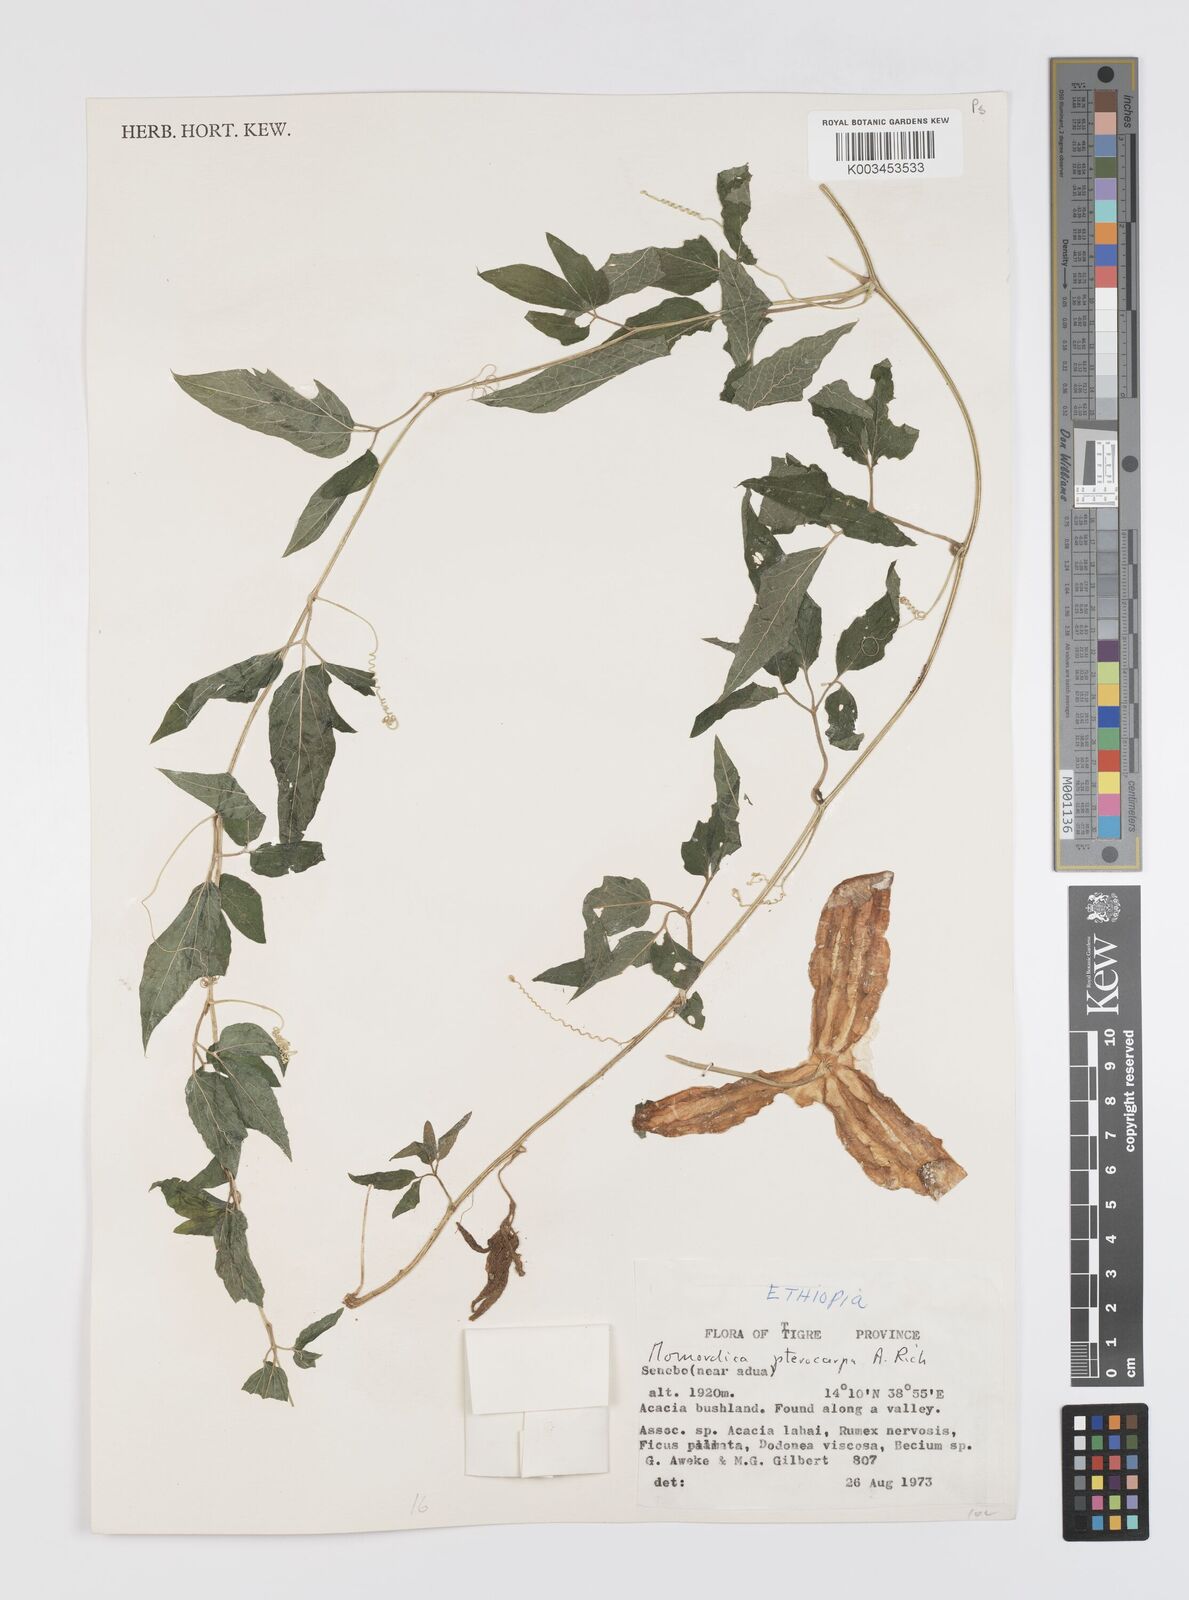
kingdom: Plantae
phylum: Tracheophyta
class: Magnoliopsida
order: Cucurbitales
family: Cucurbitaceae
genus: Momordica
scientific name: Momordica pterocarpa
